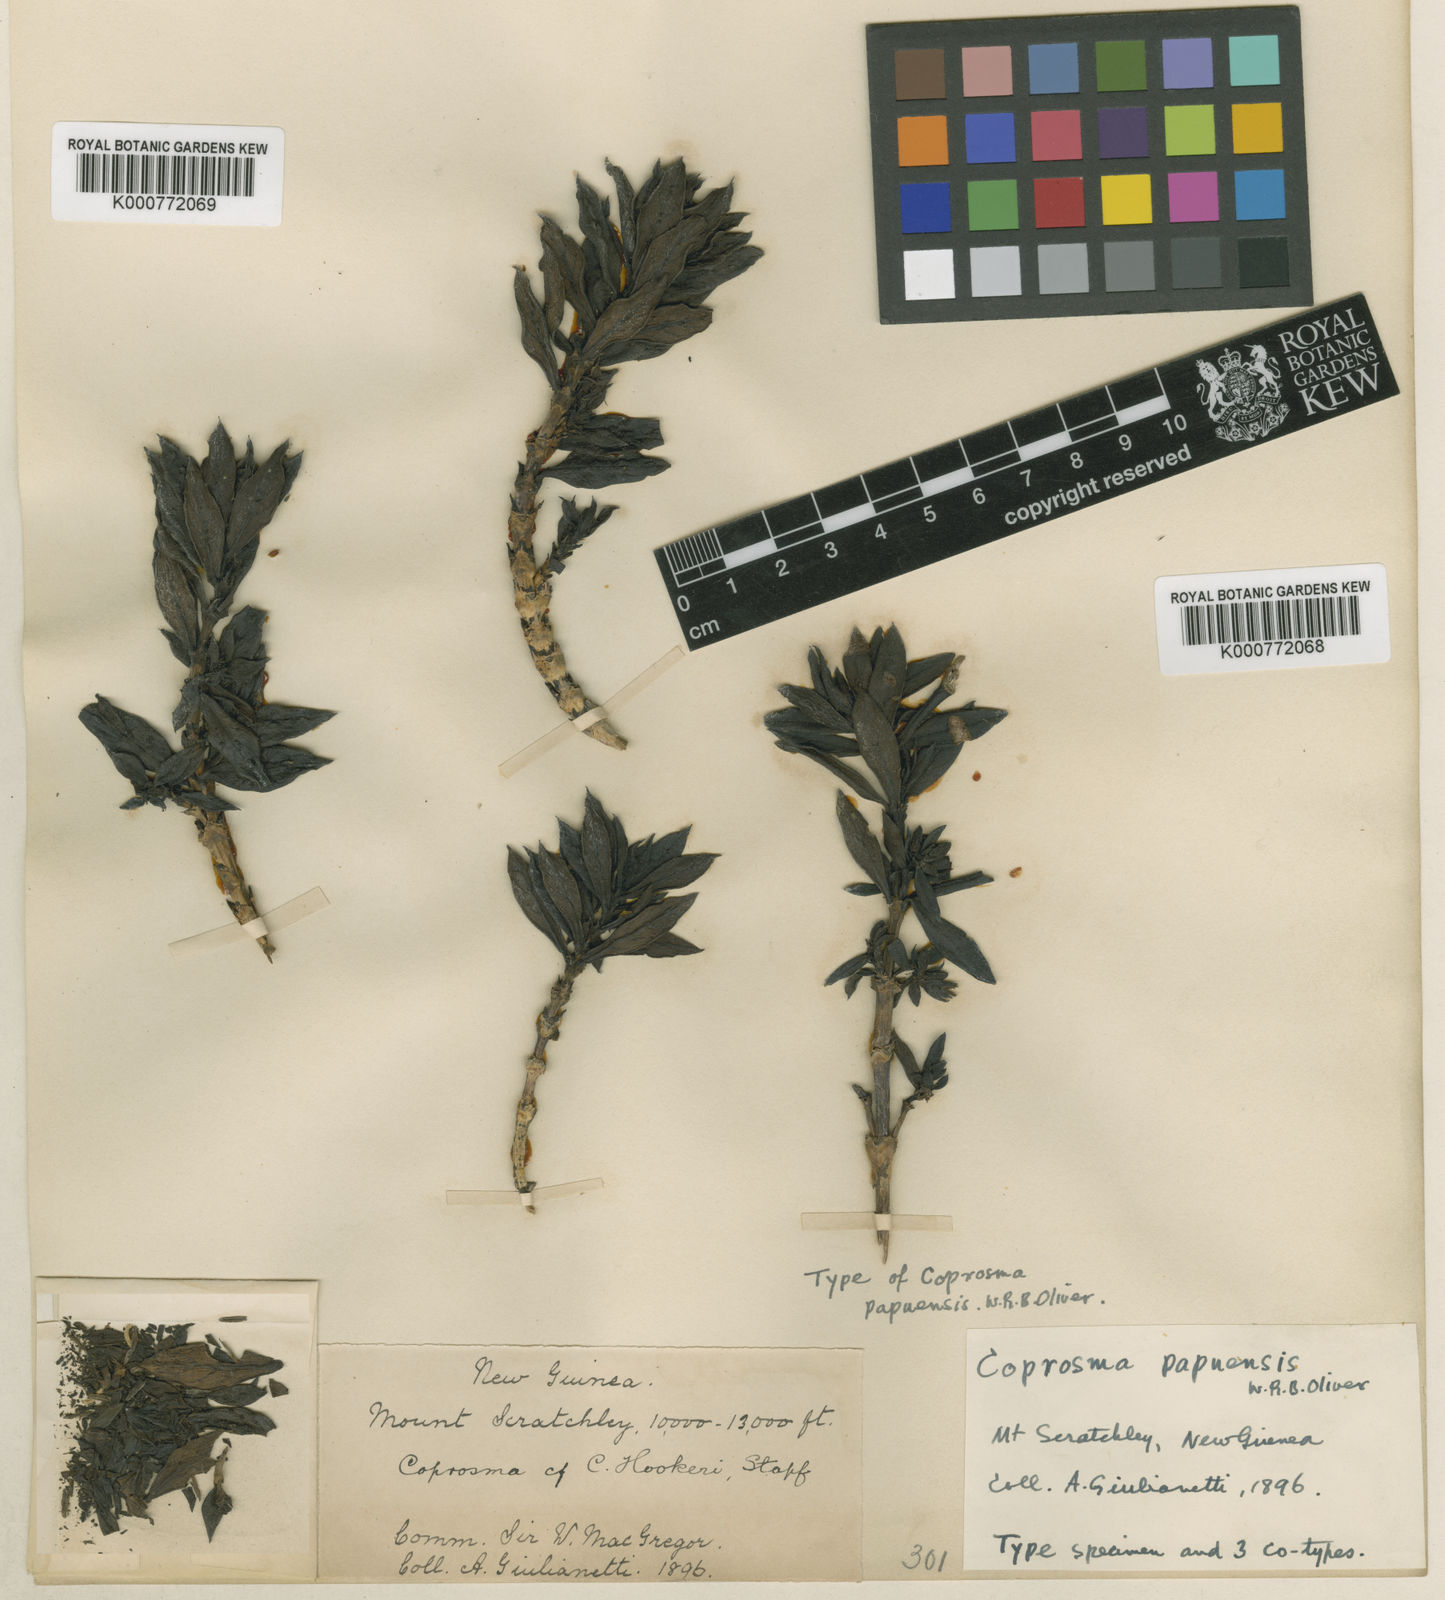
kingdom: Plantae
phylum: Tracheophyta
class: Magnoliopsida
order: Gentianales
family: Rubiaceae
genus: Coprosma
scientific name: Coprosma papuensis
